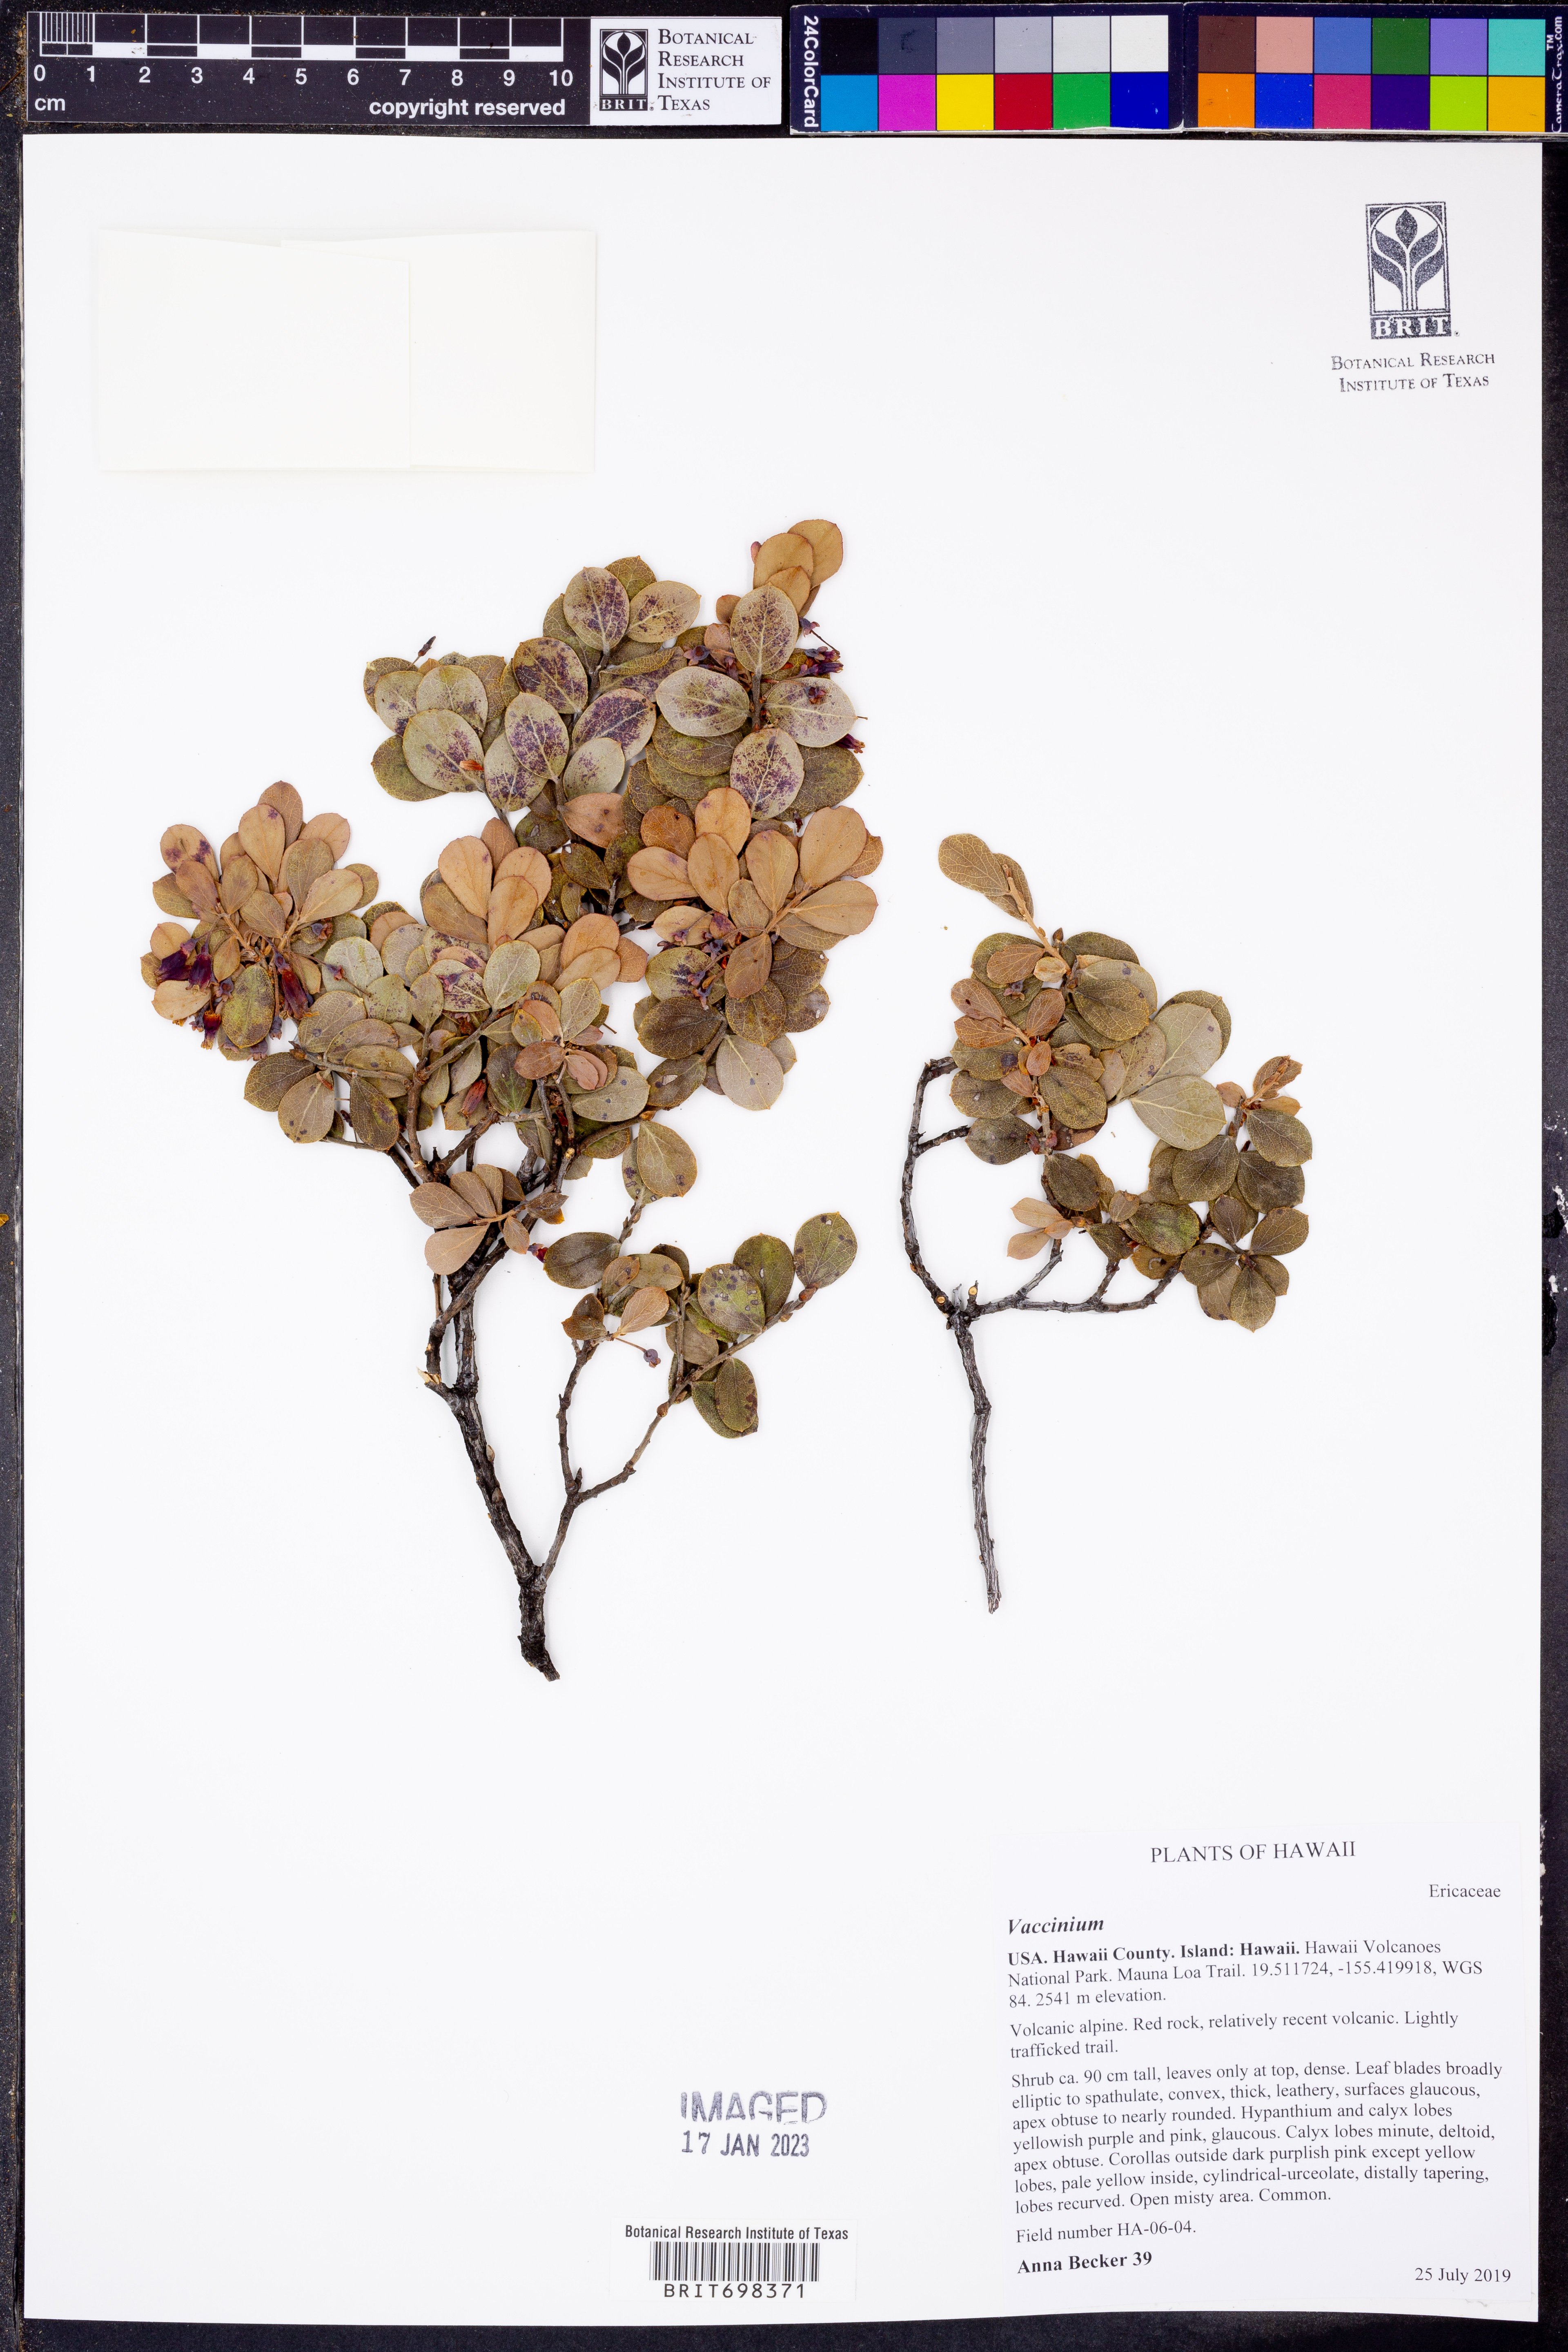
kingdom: Plantae
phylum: Tracheophyta
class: Magnoliopsida
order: Ericales
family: Ericaceae
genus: Vaccinium
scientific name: Vaccinium
